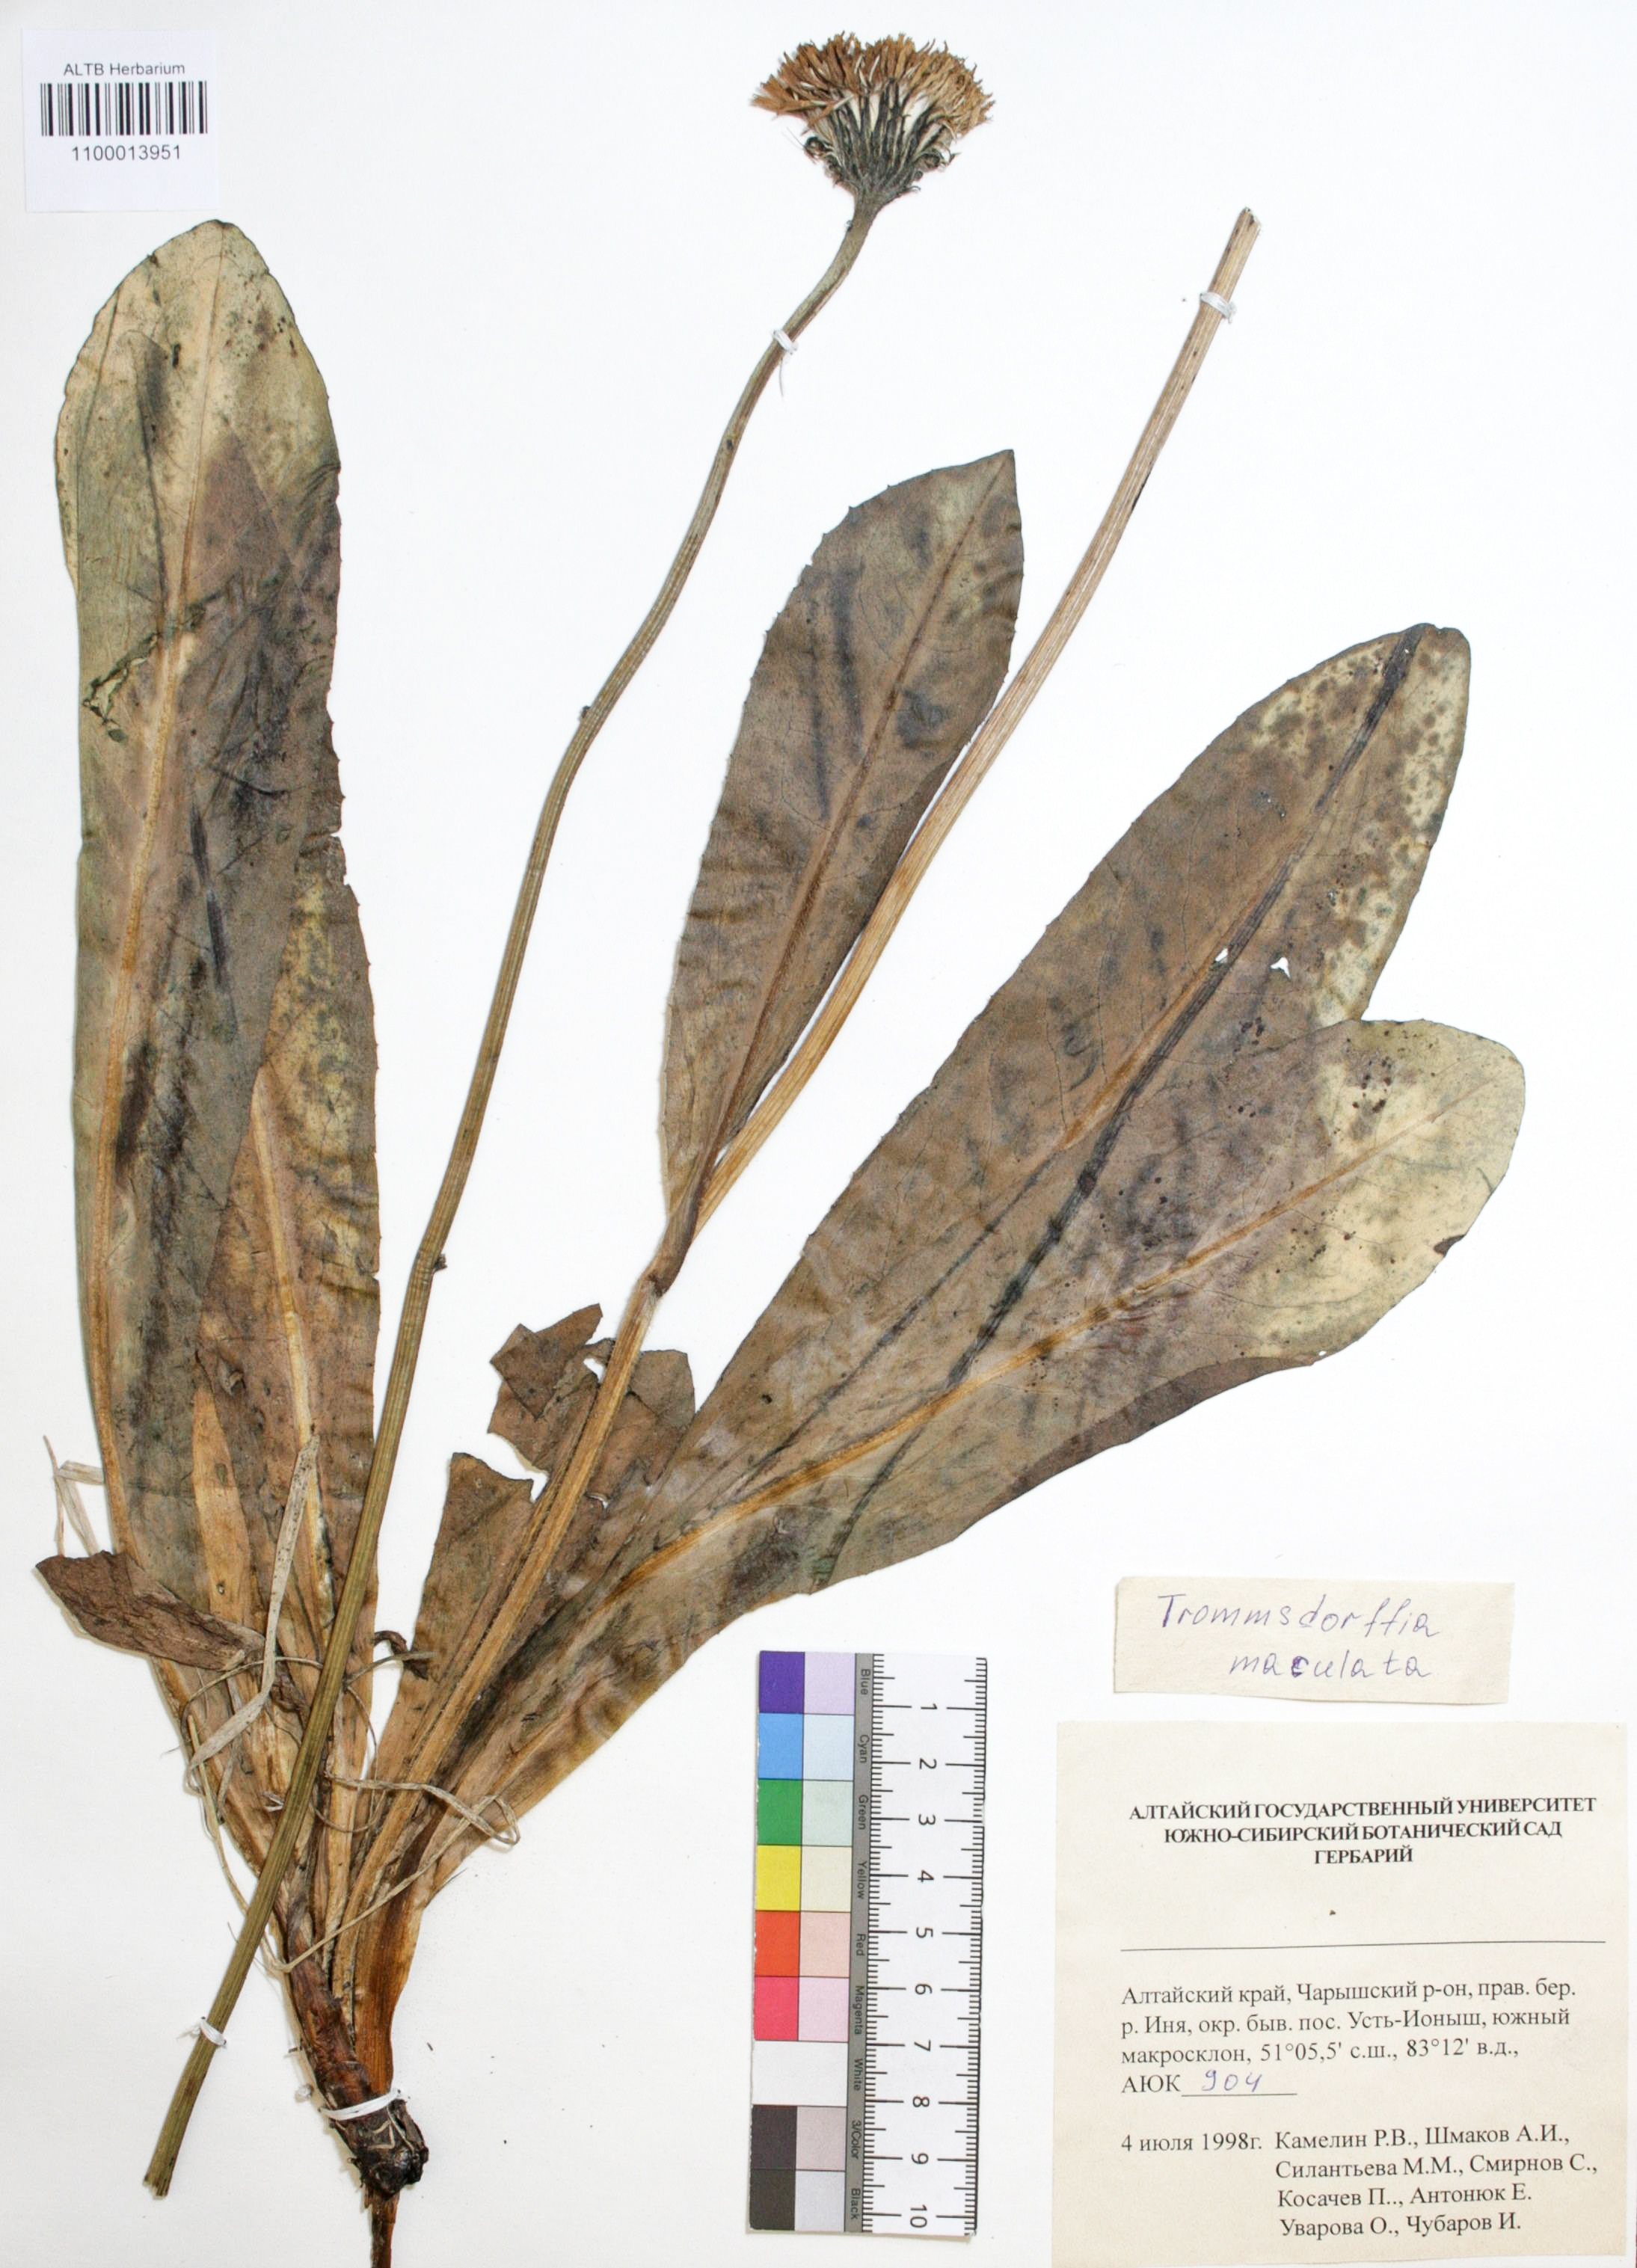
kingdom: Plantae
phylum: Tracheophyta
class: Magnoliopsida
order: Asterales
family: Asteraceae
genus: Trommsdorffia
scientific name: Trommsdorffia maculata
